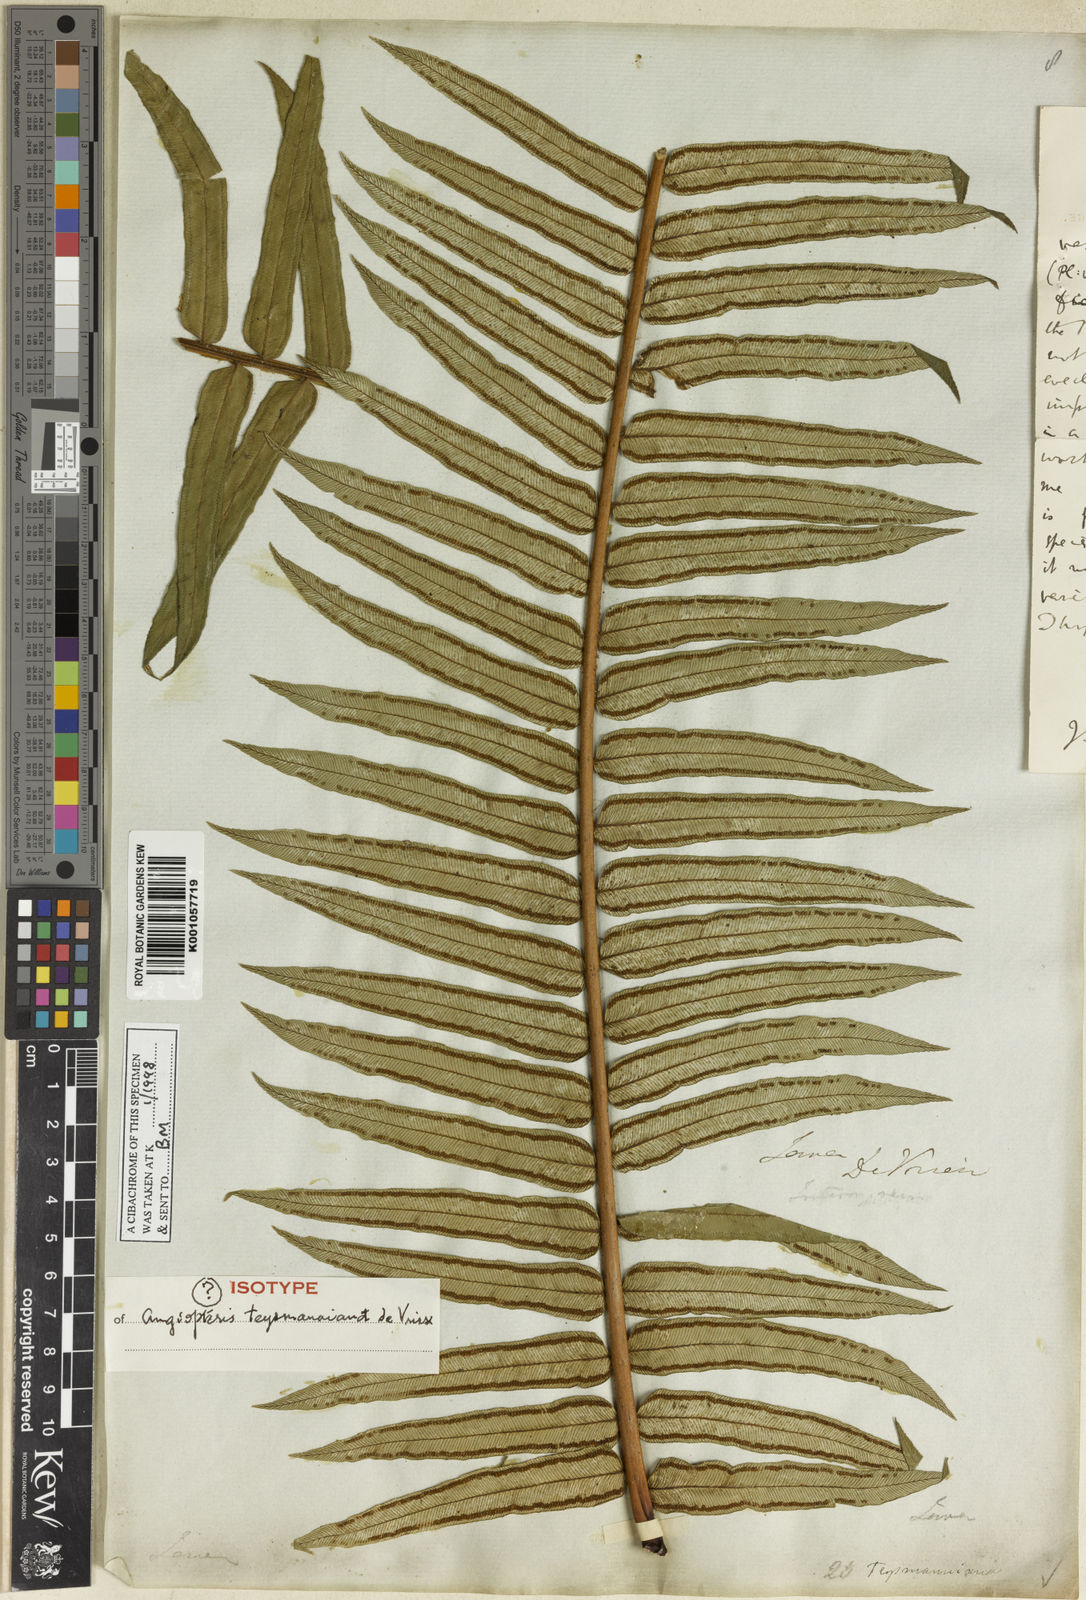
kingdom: Plantae
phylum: Tracheophyta
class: Polypodiopsida
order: Marattiales
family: Marattiaceae
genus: Angiopteris
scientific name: Angiopteris javanica
